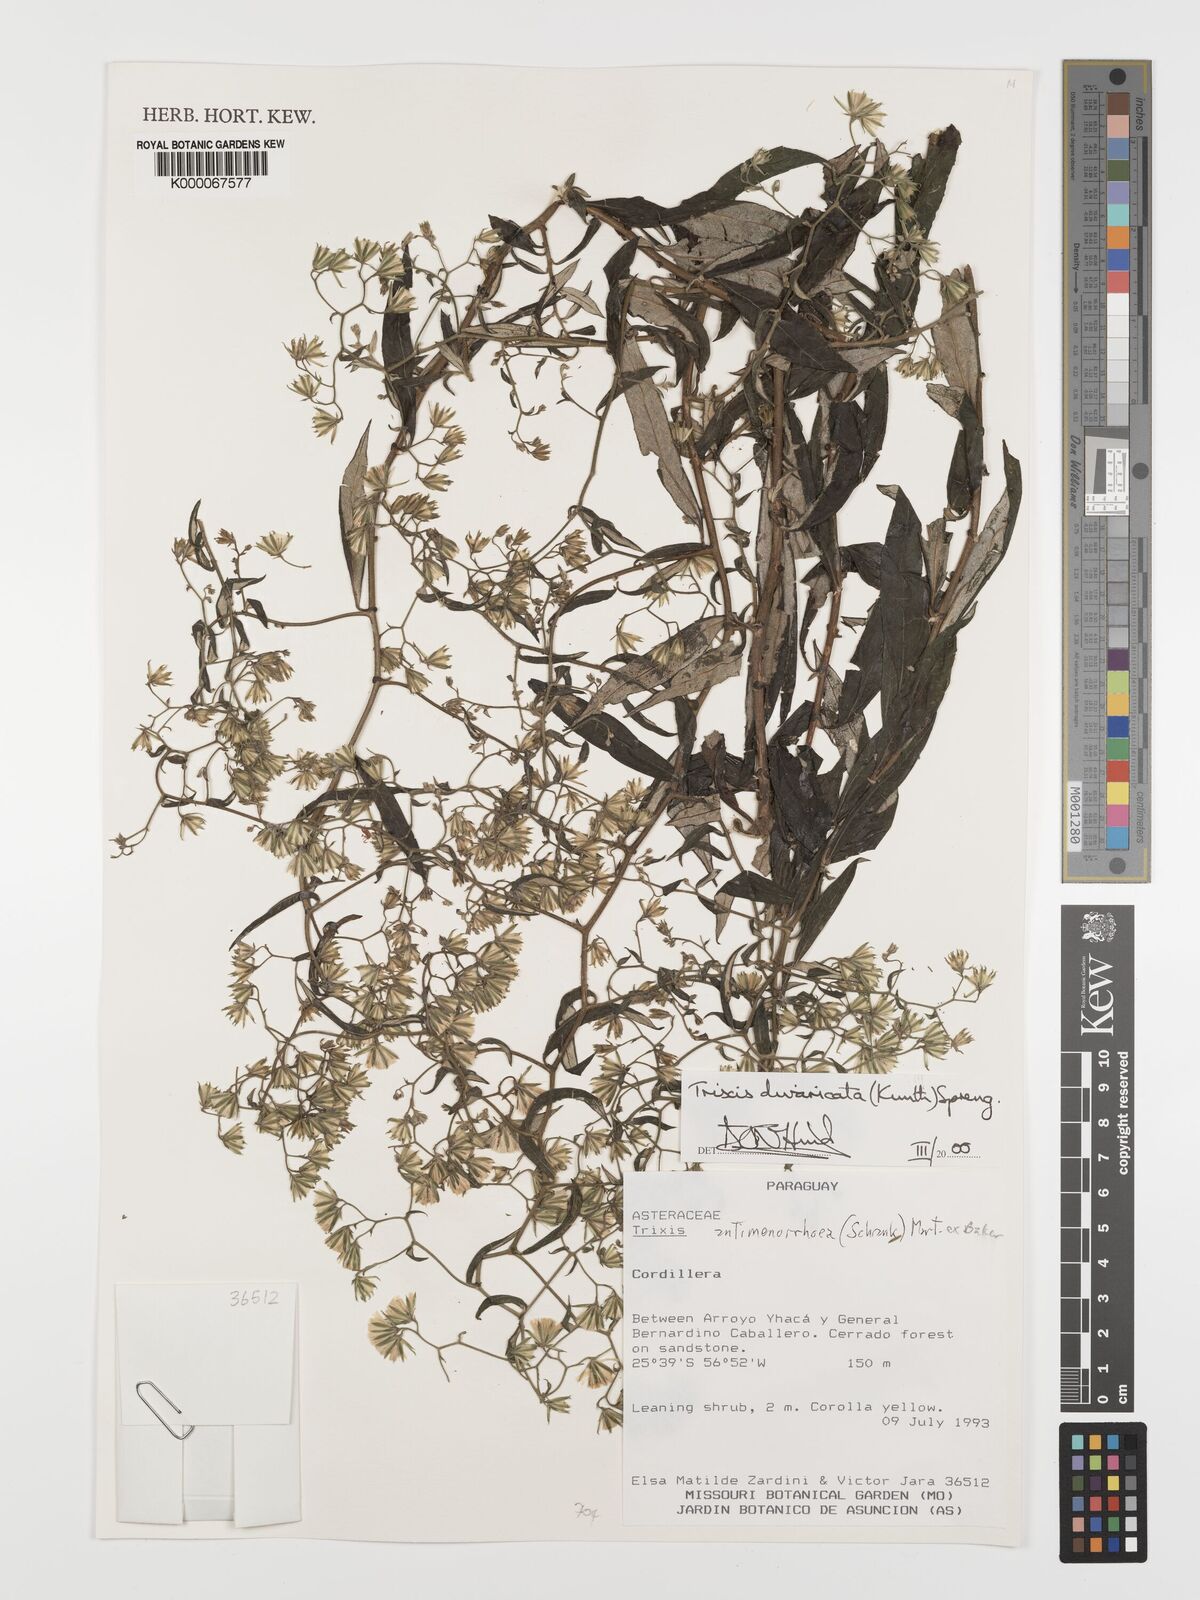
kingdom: Plantae
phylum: Tracheophyta
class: Magnoliopsida
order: Asterales
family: Asteraceae
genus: Trixis
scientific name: Trixis divaricata
